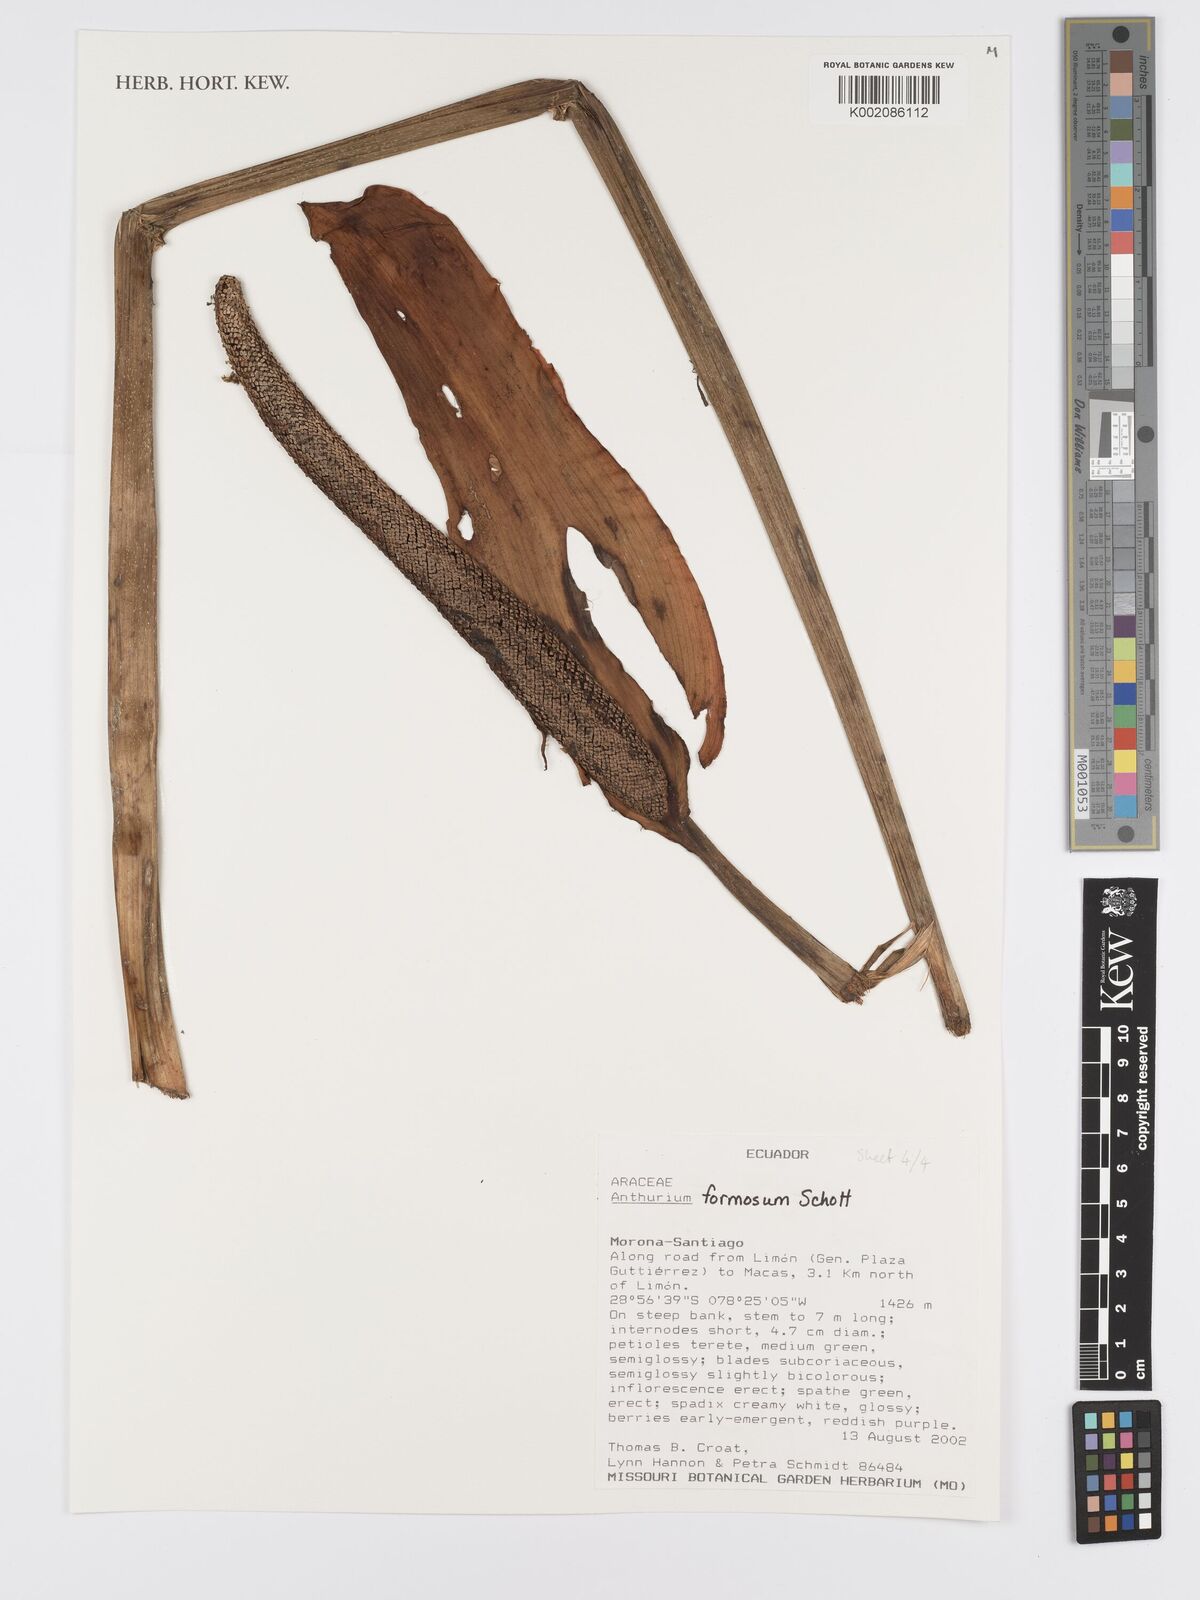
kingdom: Plantae
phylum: Tracheophyta
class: Liliopsida
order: Alismatales
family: Araceae
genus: Anthurium
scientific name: Anthurium formosum
